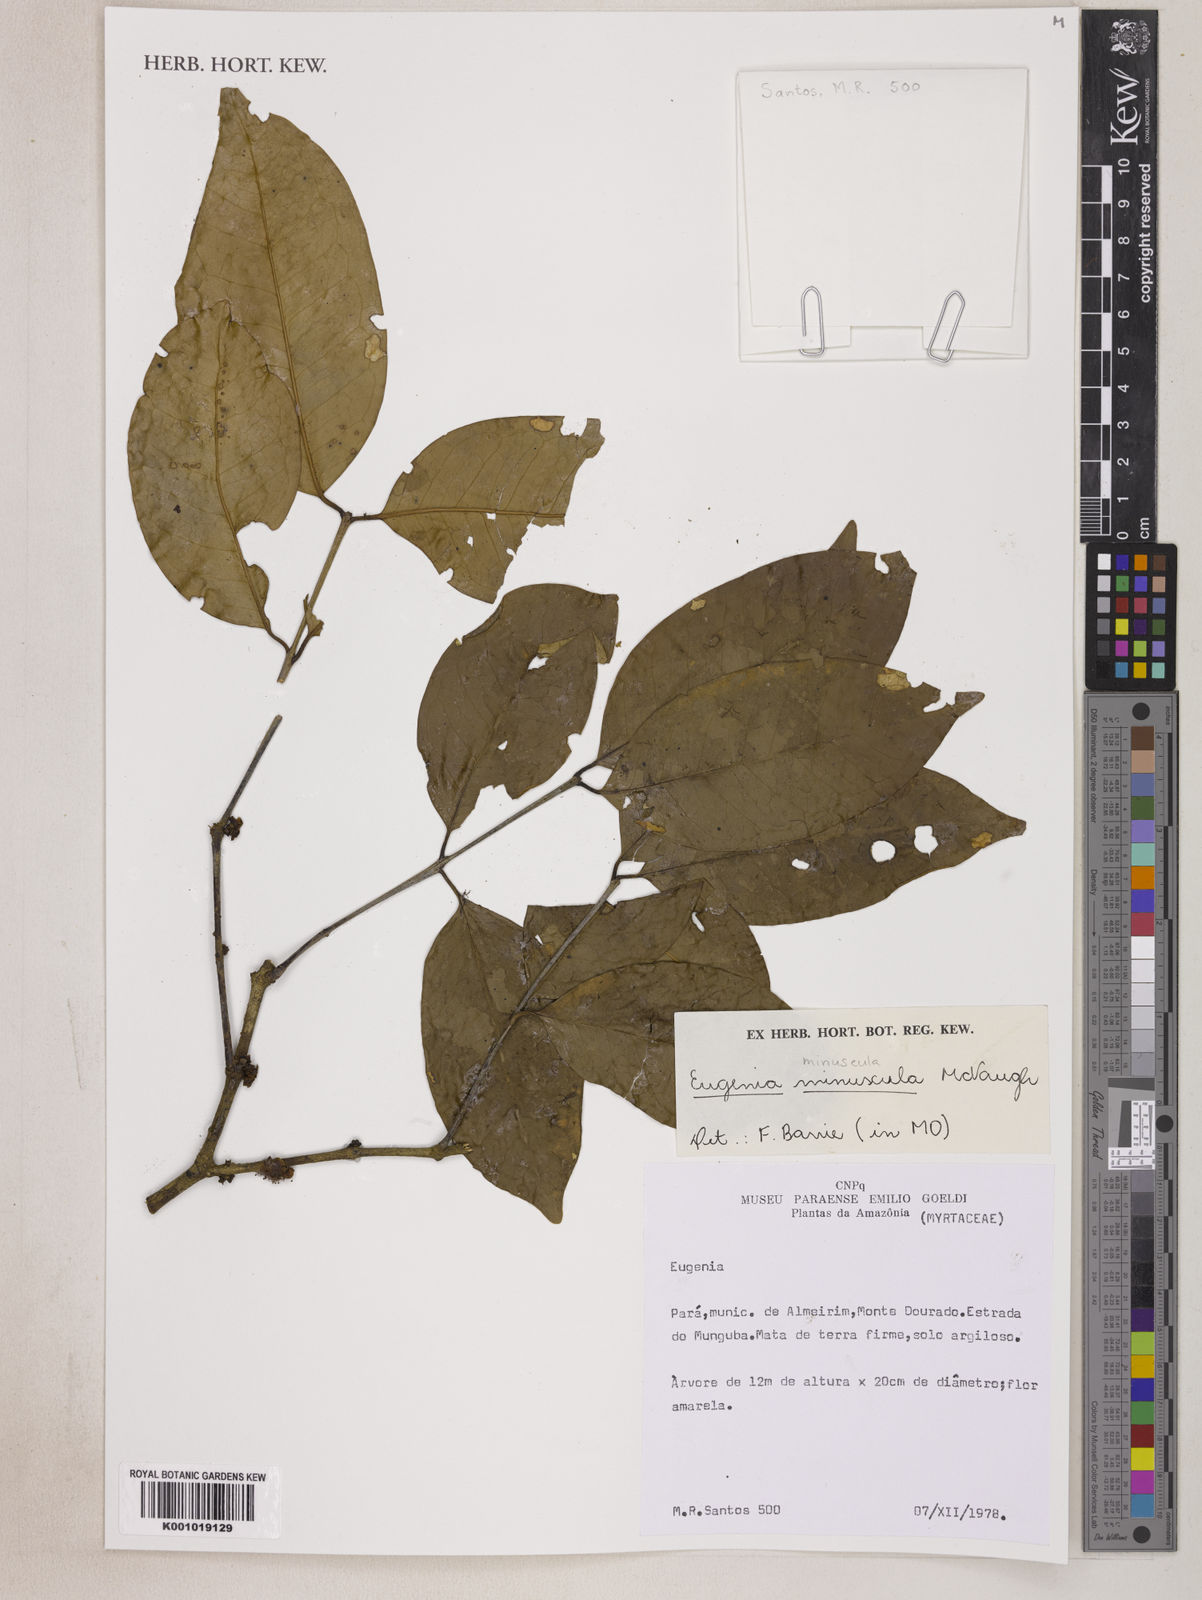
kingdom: Plantae
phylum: Tracheophyta
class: Magnoliopsida
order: Myrtales
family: Myrtaceae
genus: Eugenia
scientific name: Eugenia minuscula
